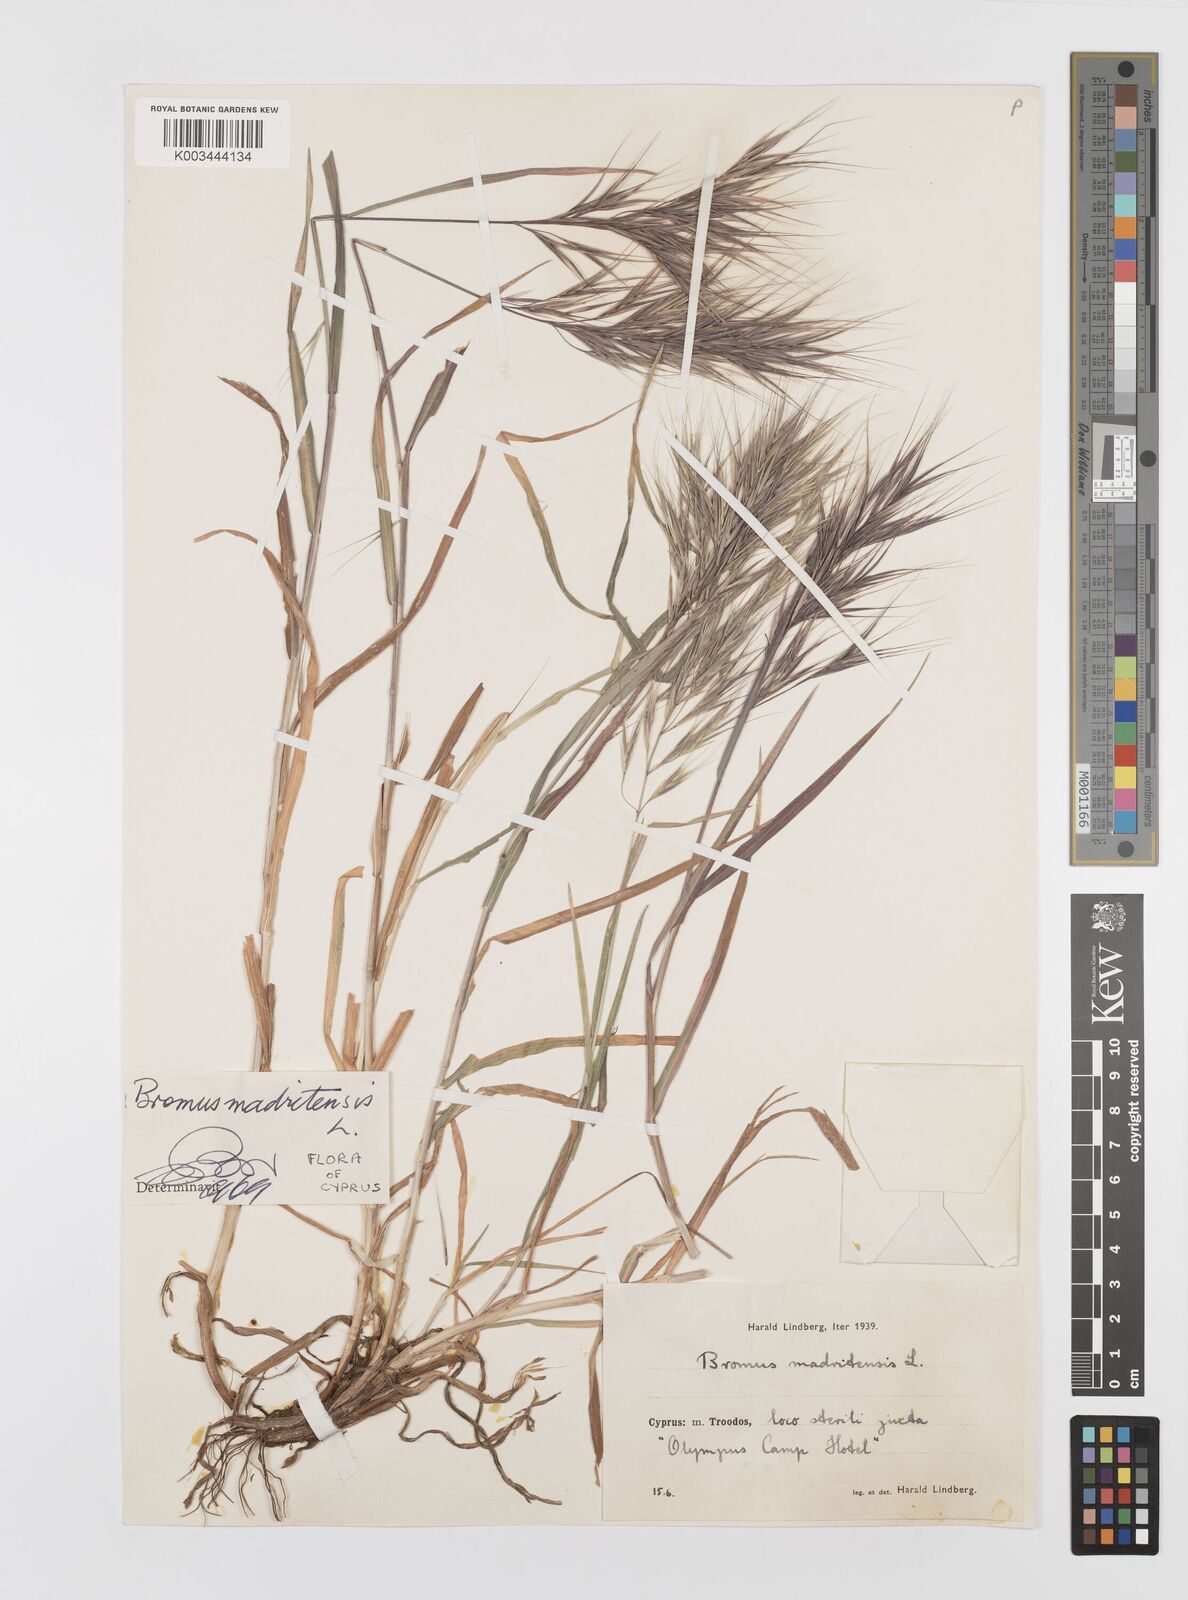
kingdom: Plantae
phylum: Tracheophyta
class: Liliopsida
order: Poales
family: Poaceae
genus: Bromus
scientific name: Bromus madritensis
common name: Compact brome
